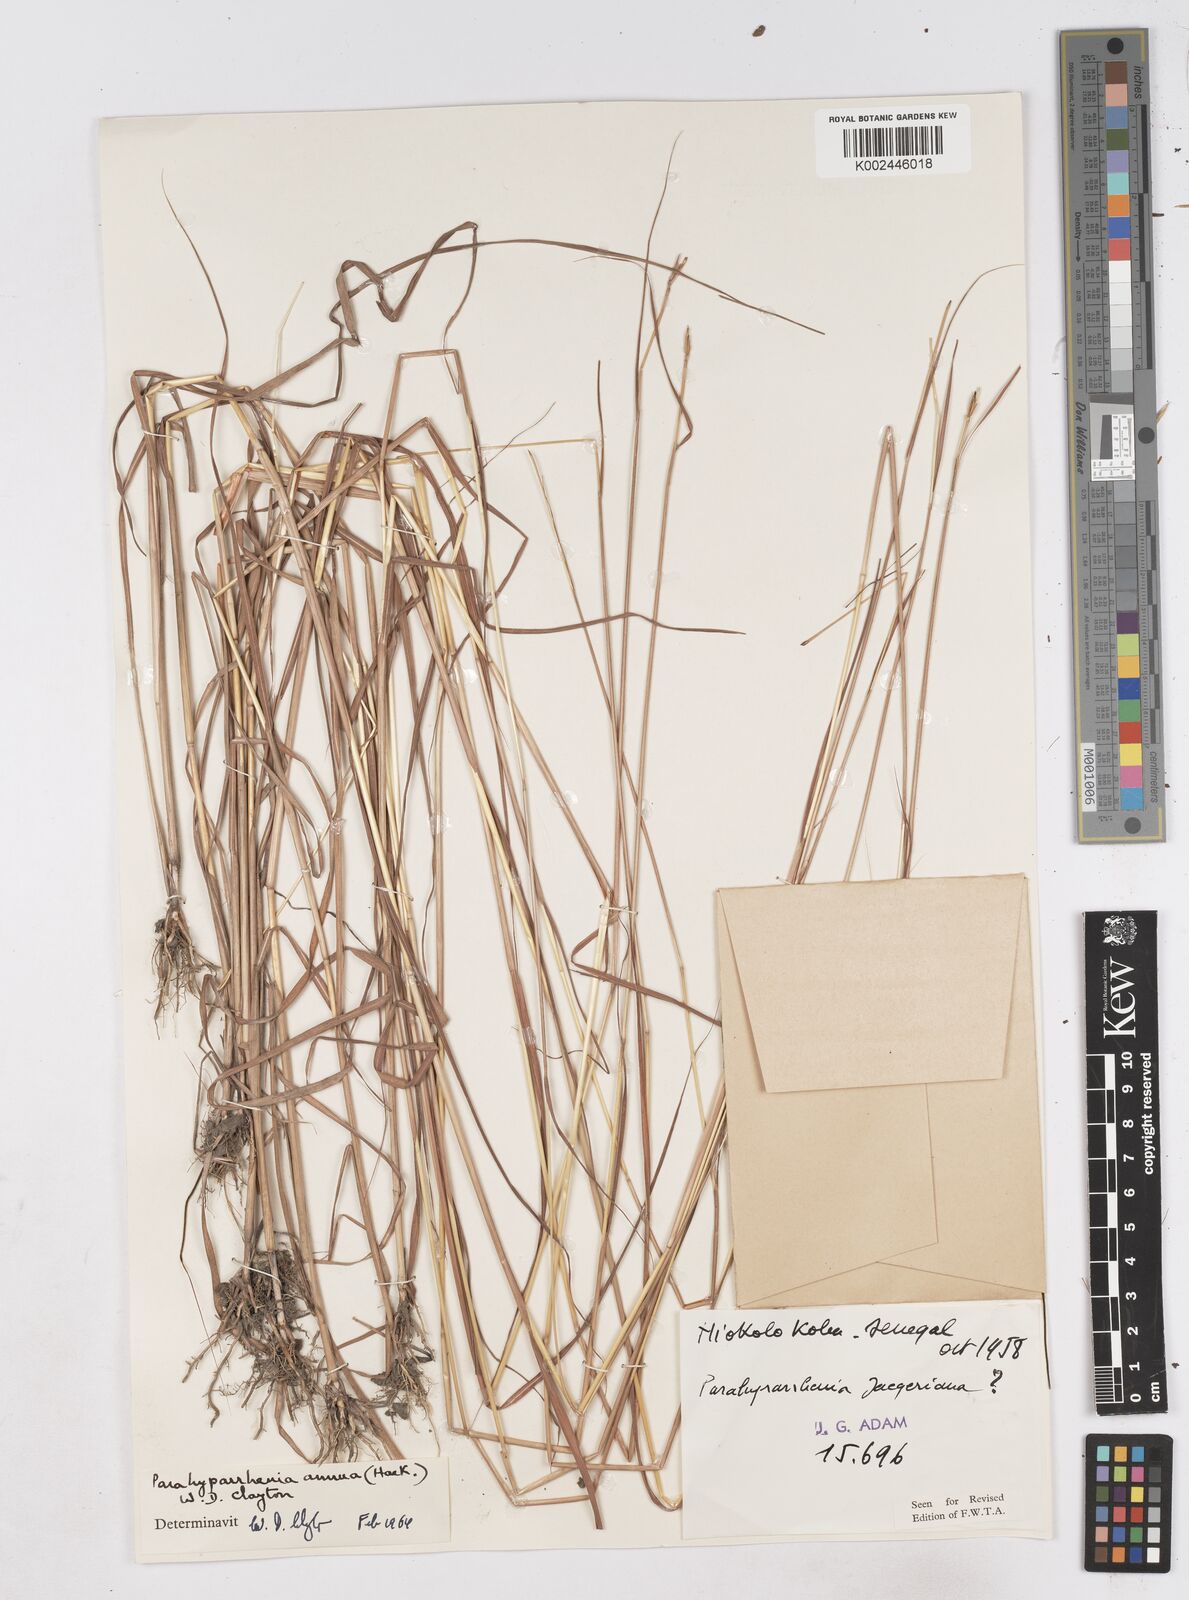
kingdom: Plantae
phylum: Tracheophyta
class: Liliopsida
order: Poales
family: Poaceae
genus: Parahyparrhenia
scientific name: Parahyparrhenia annua
